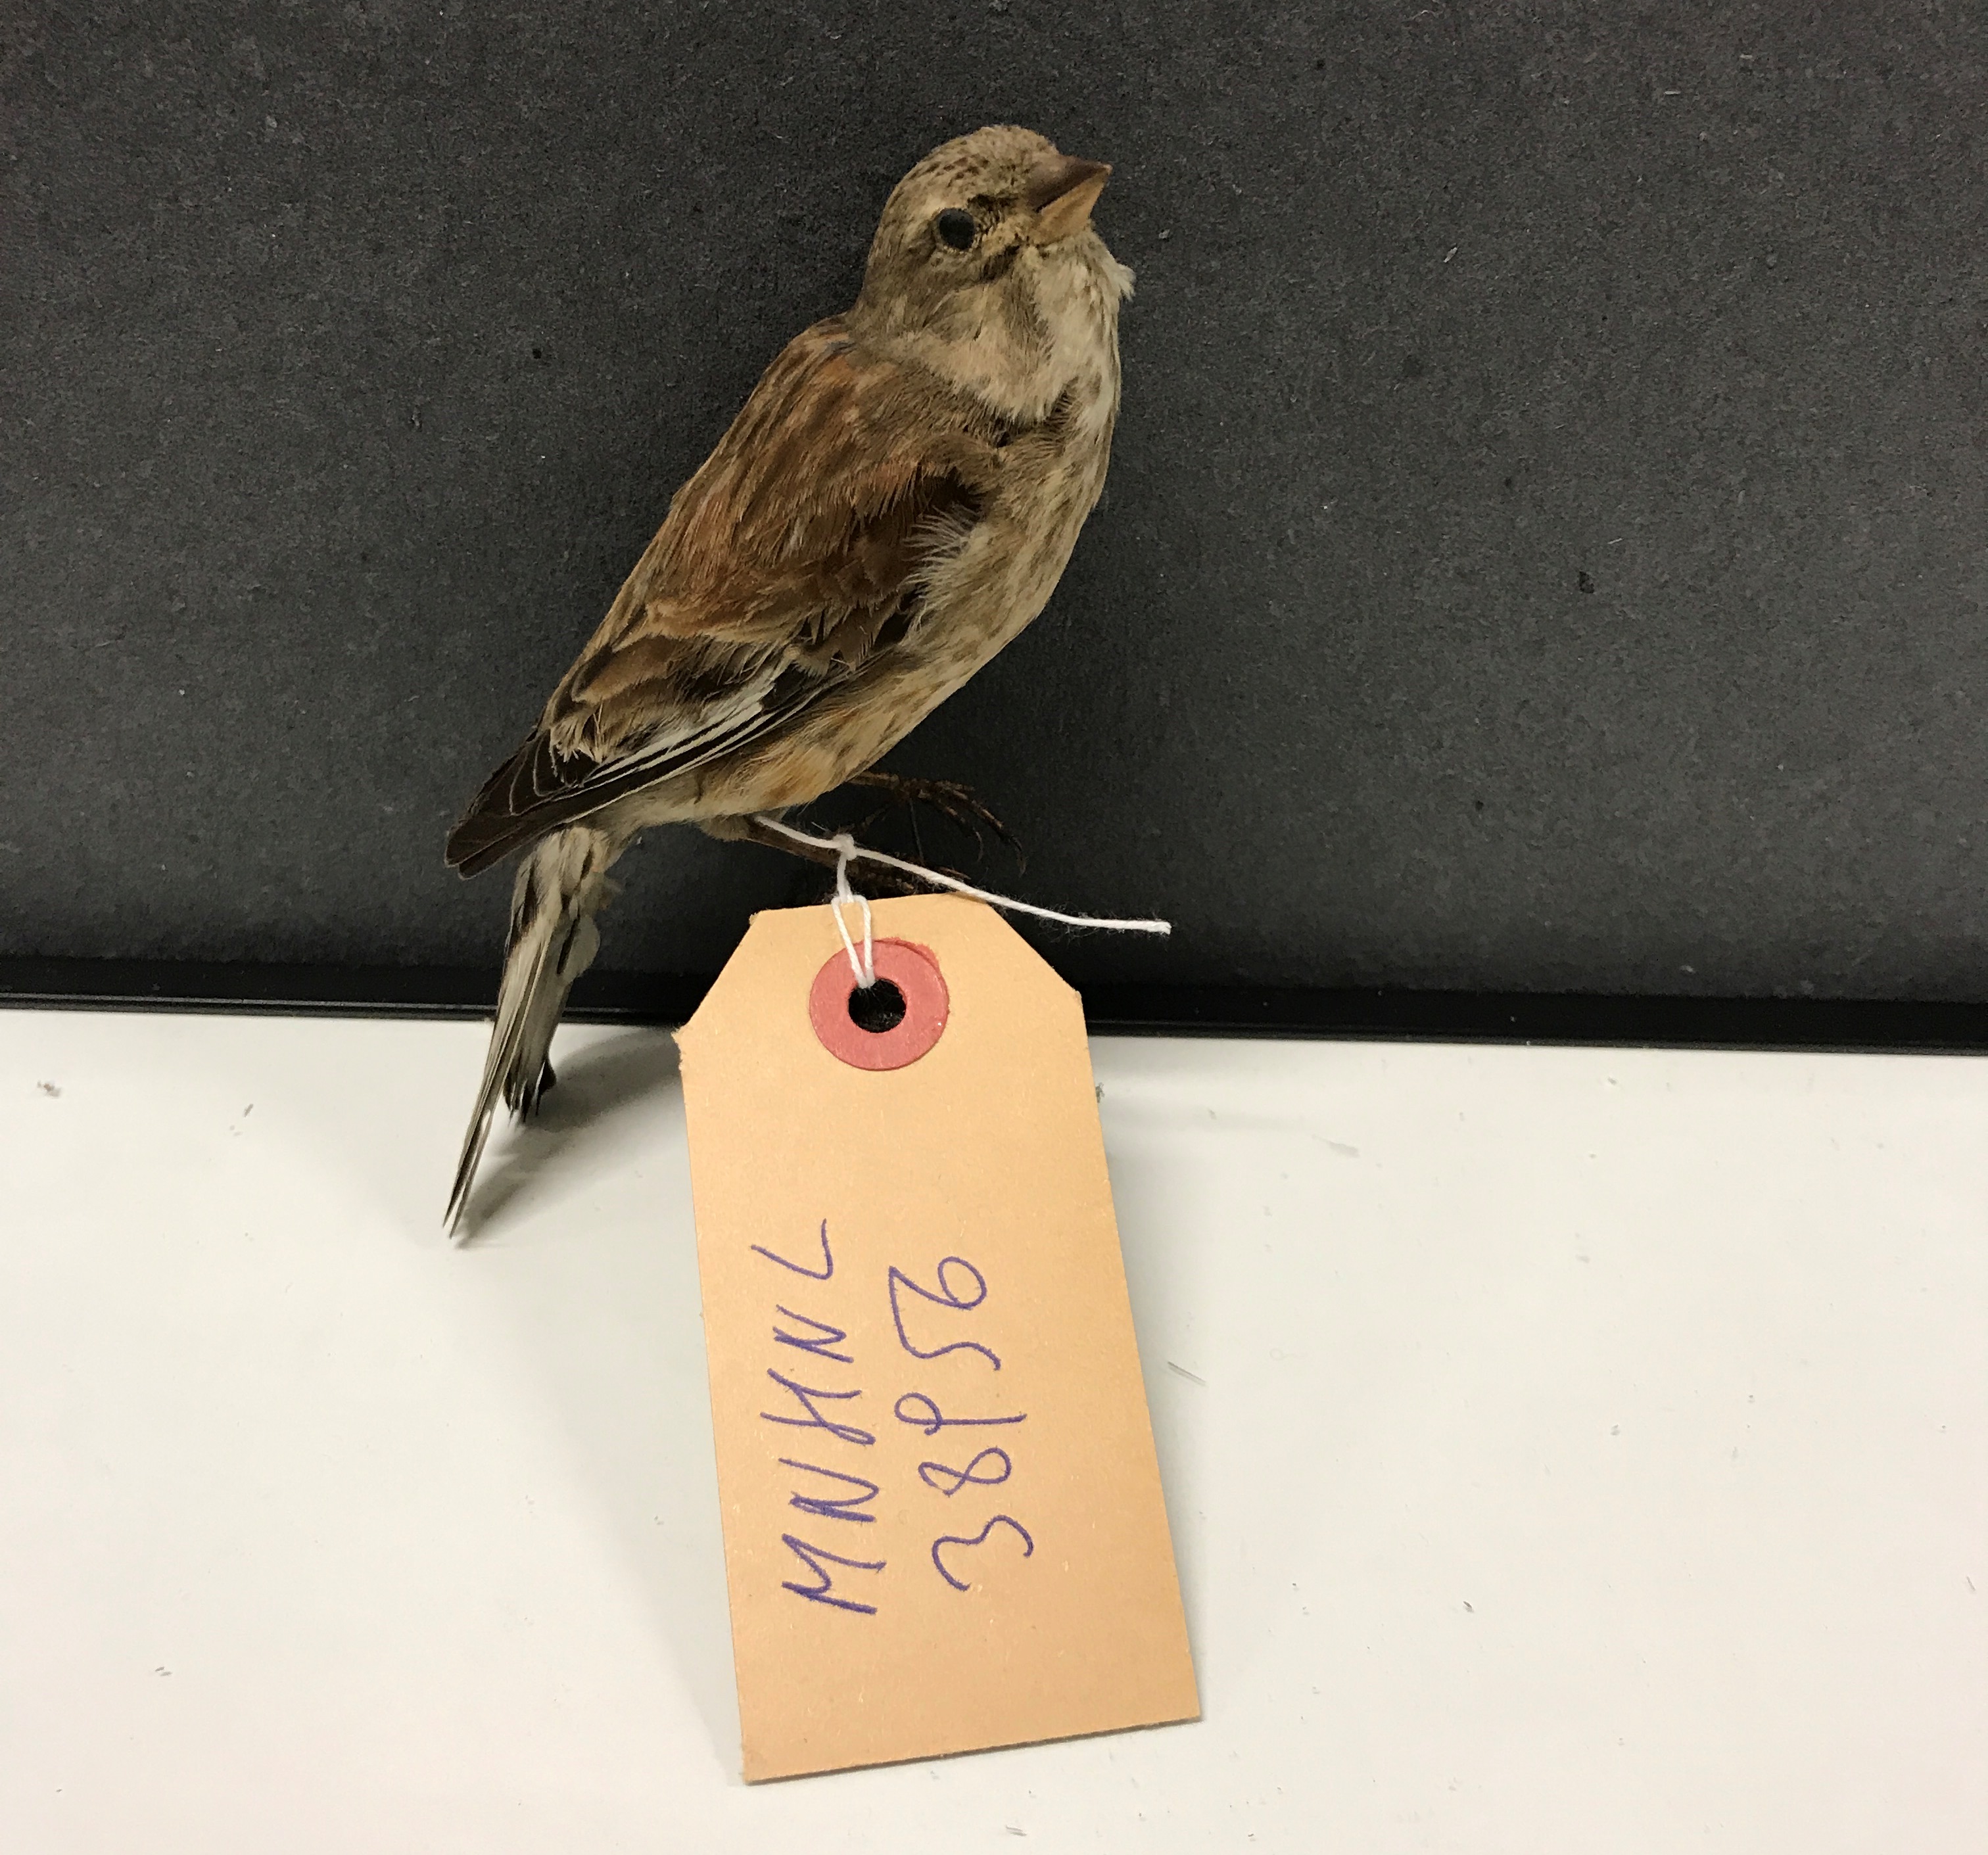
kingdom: Animalia
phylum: Chordata
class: Aves
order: Passeriformes
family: Fringillidae
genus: Linaria
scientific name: Linaria cannabina
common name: Common linnet
